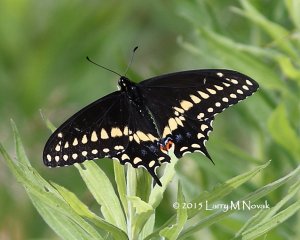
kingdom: Animalia
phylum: Arthropoda
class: Insecta
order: Lepidoptera
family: Papilionidae
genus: Papilio
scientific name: Papilio polyxenes
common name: Black Swallowtail
